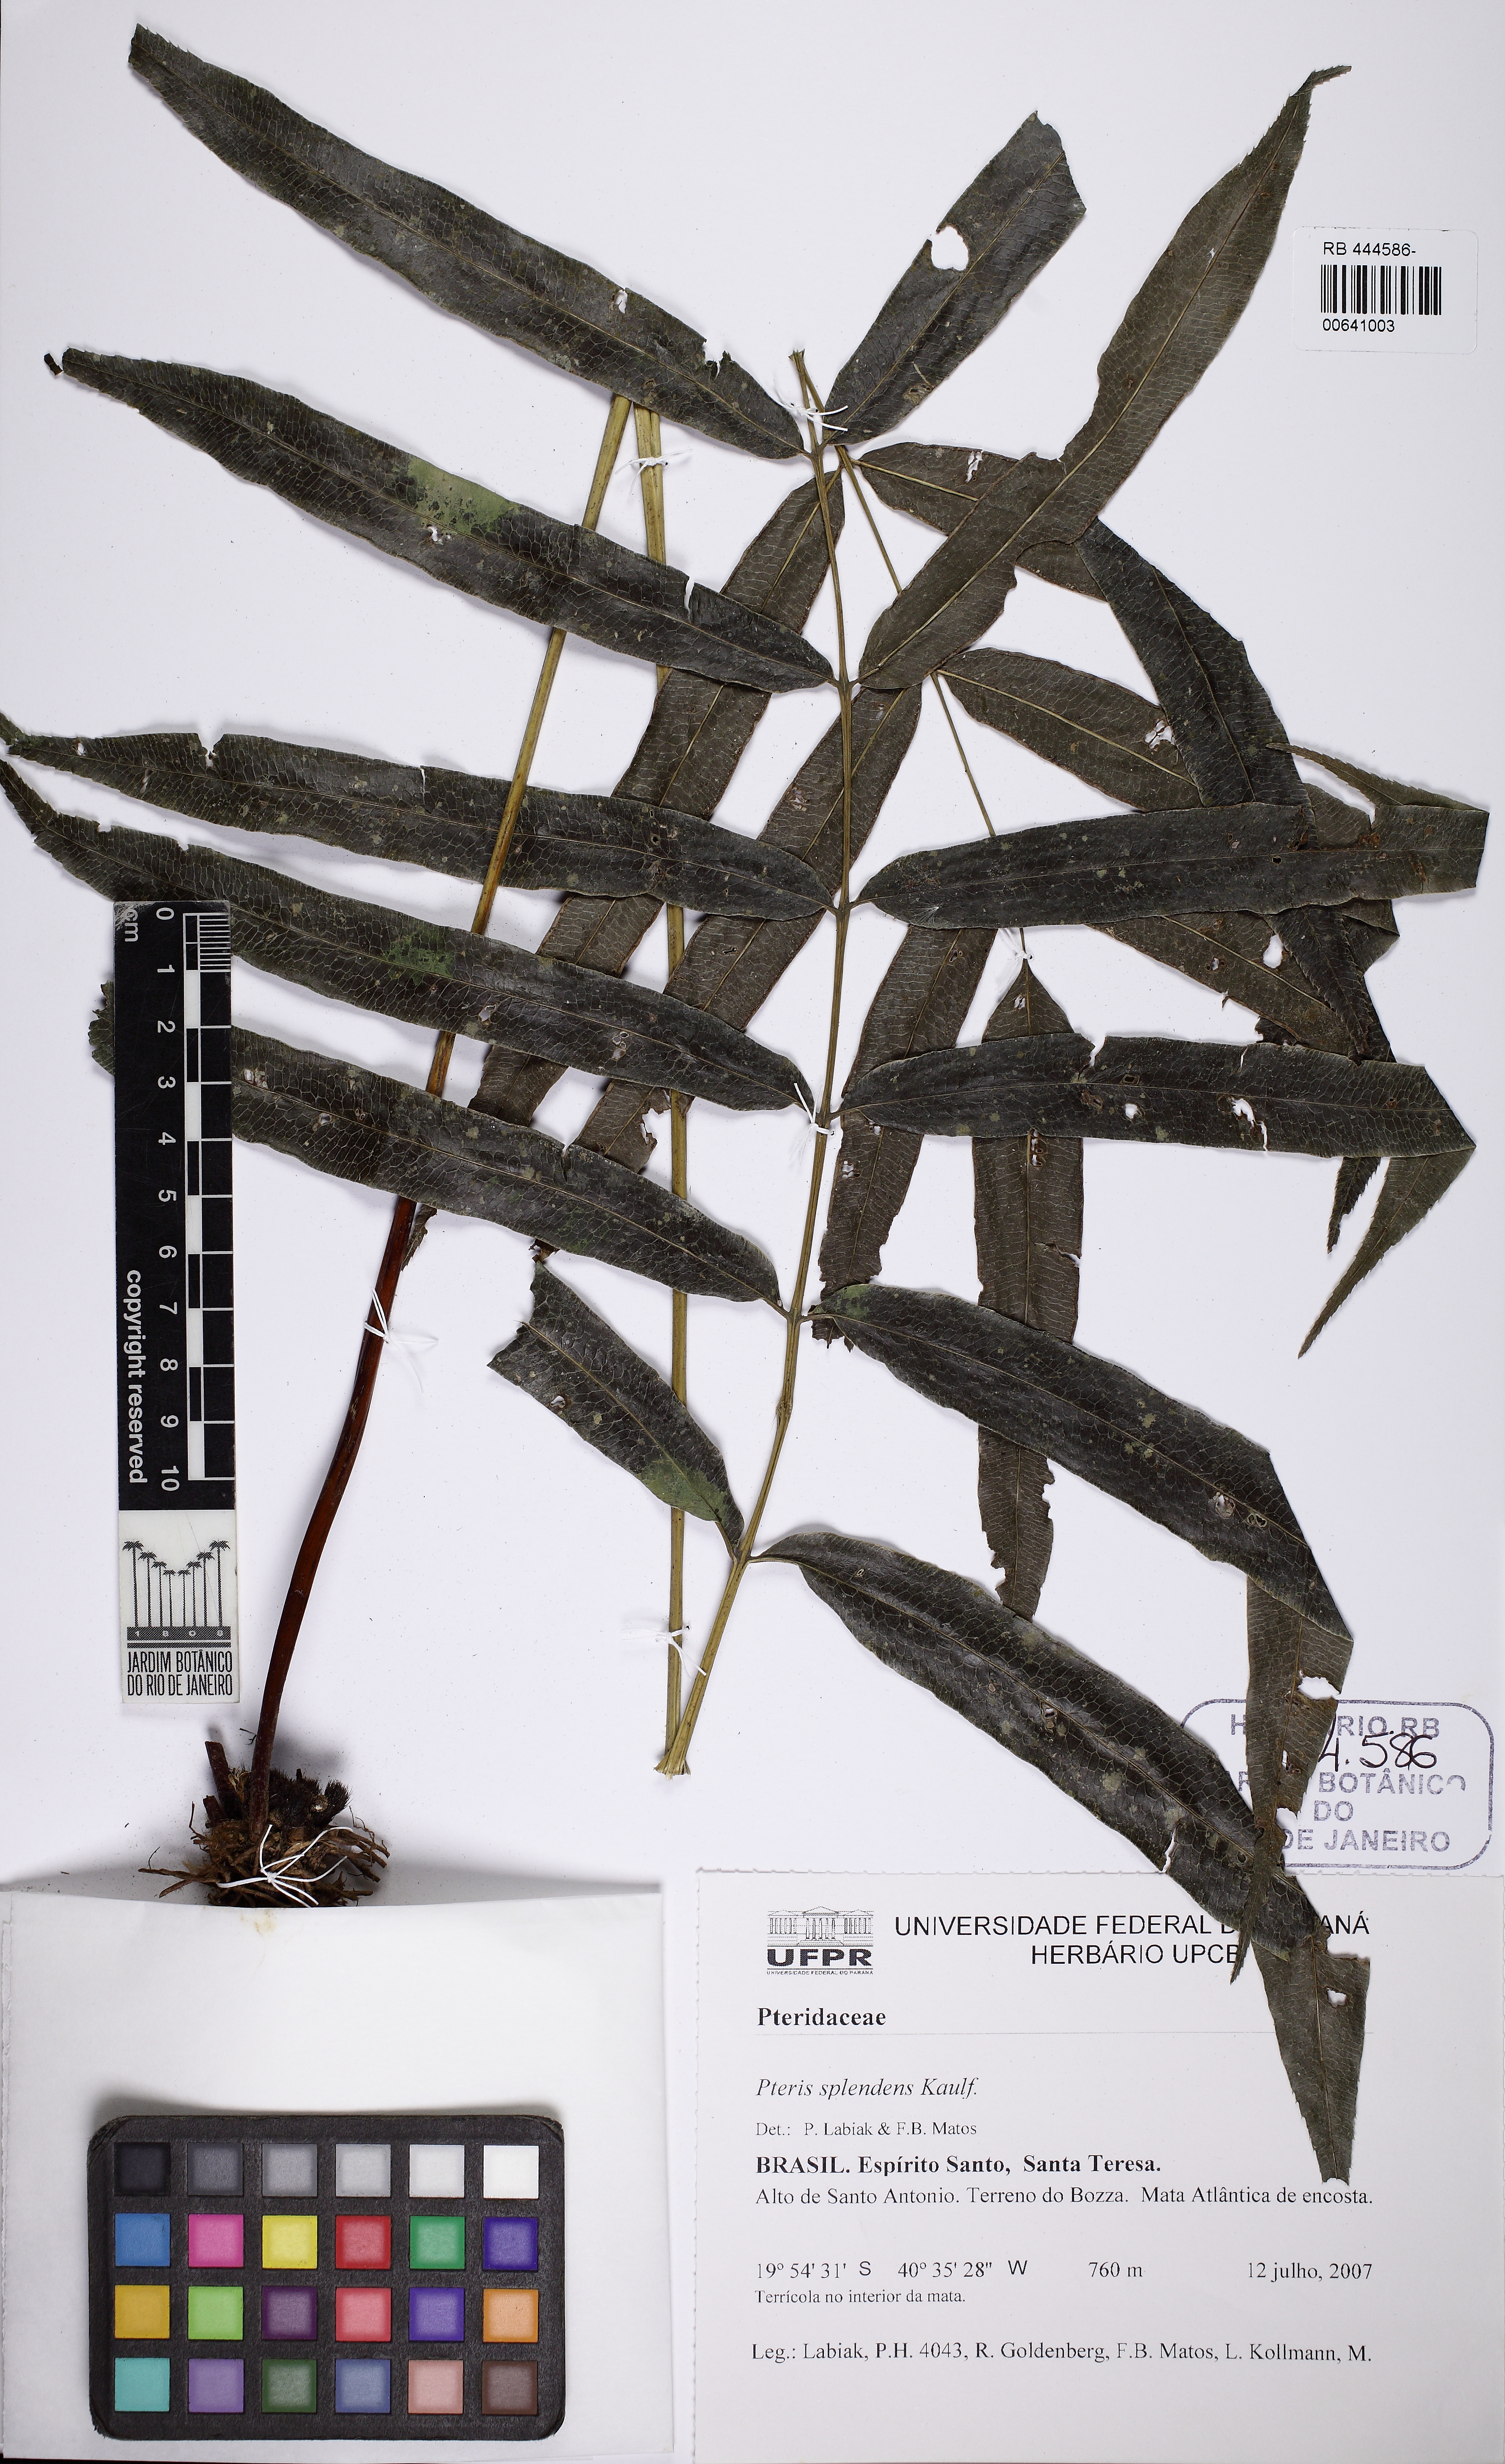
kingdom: Plantae
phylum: Tracheophyta
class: Polypodiopsida
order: Polypodiales
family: Pteridaceae
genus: Pteris
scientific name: Pteris splendens
